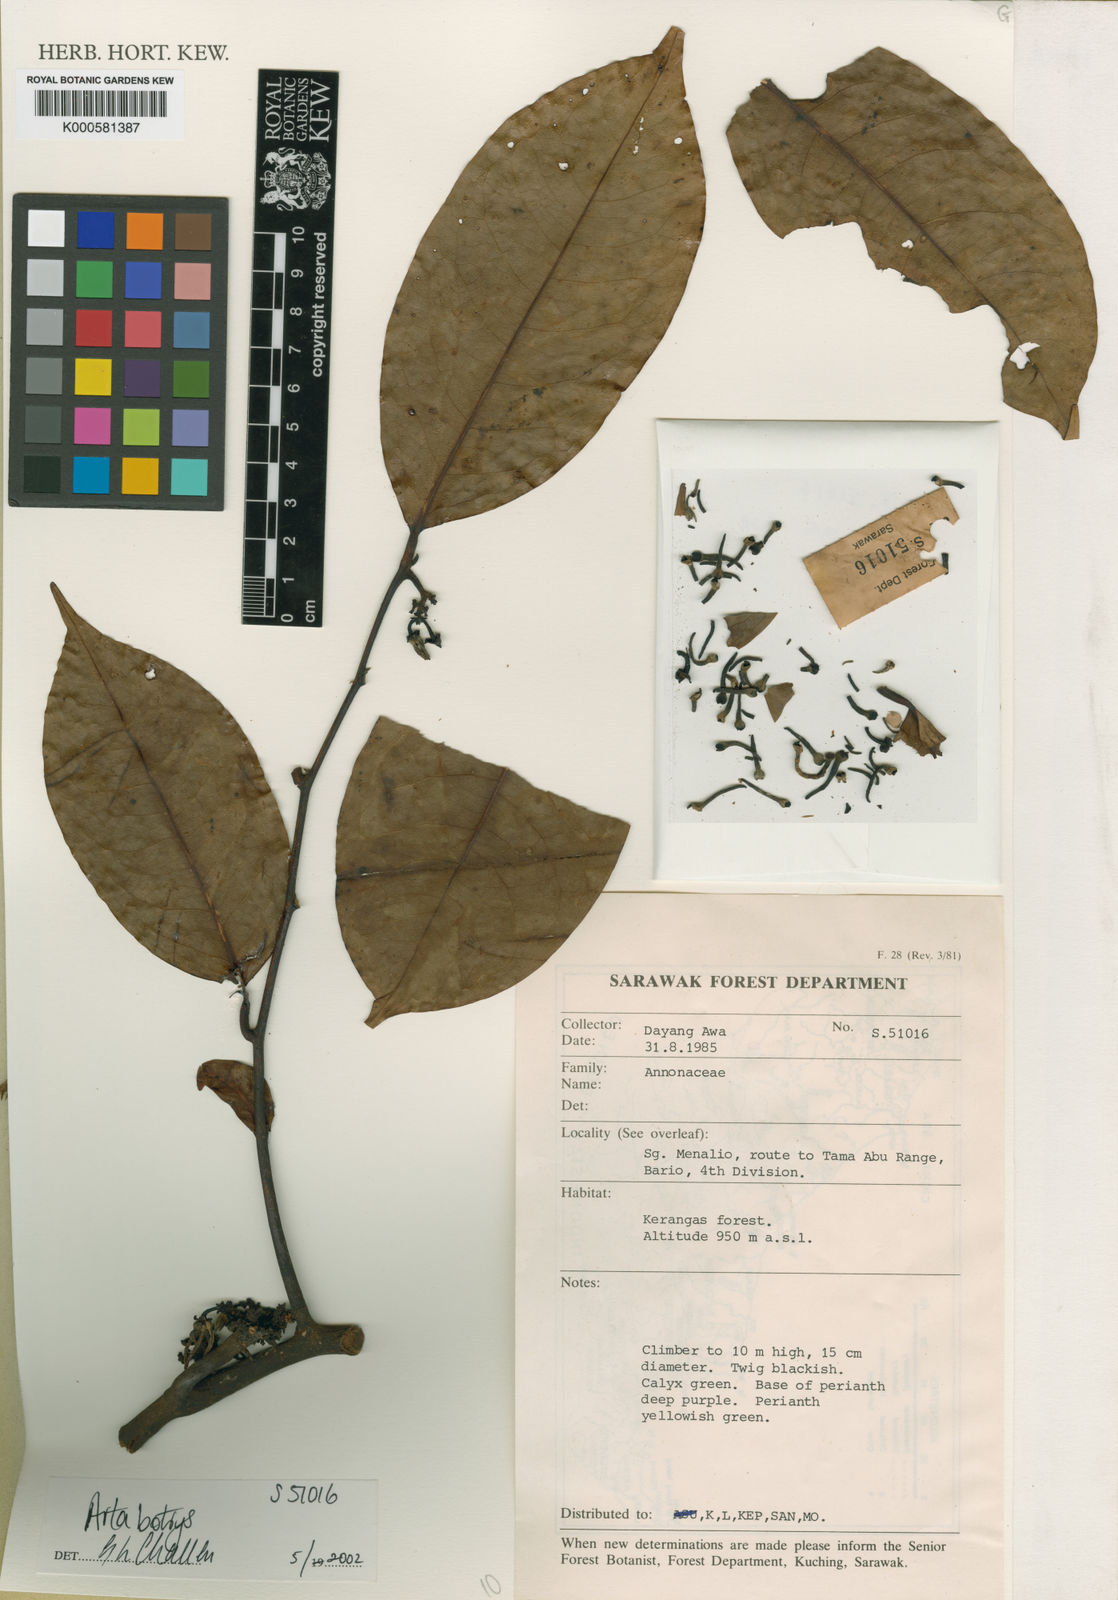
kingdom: Plantae
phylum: Tracheophyta
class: Magnoliopsida
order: Magnoliales
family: Annonaceae
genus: Artabotrys
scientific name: Artabotrys
